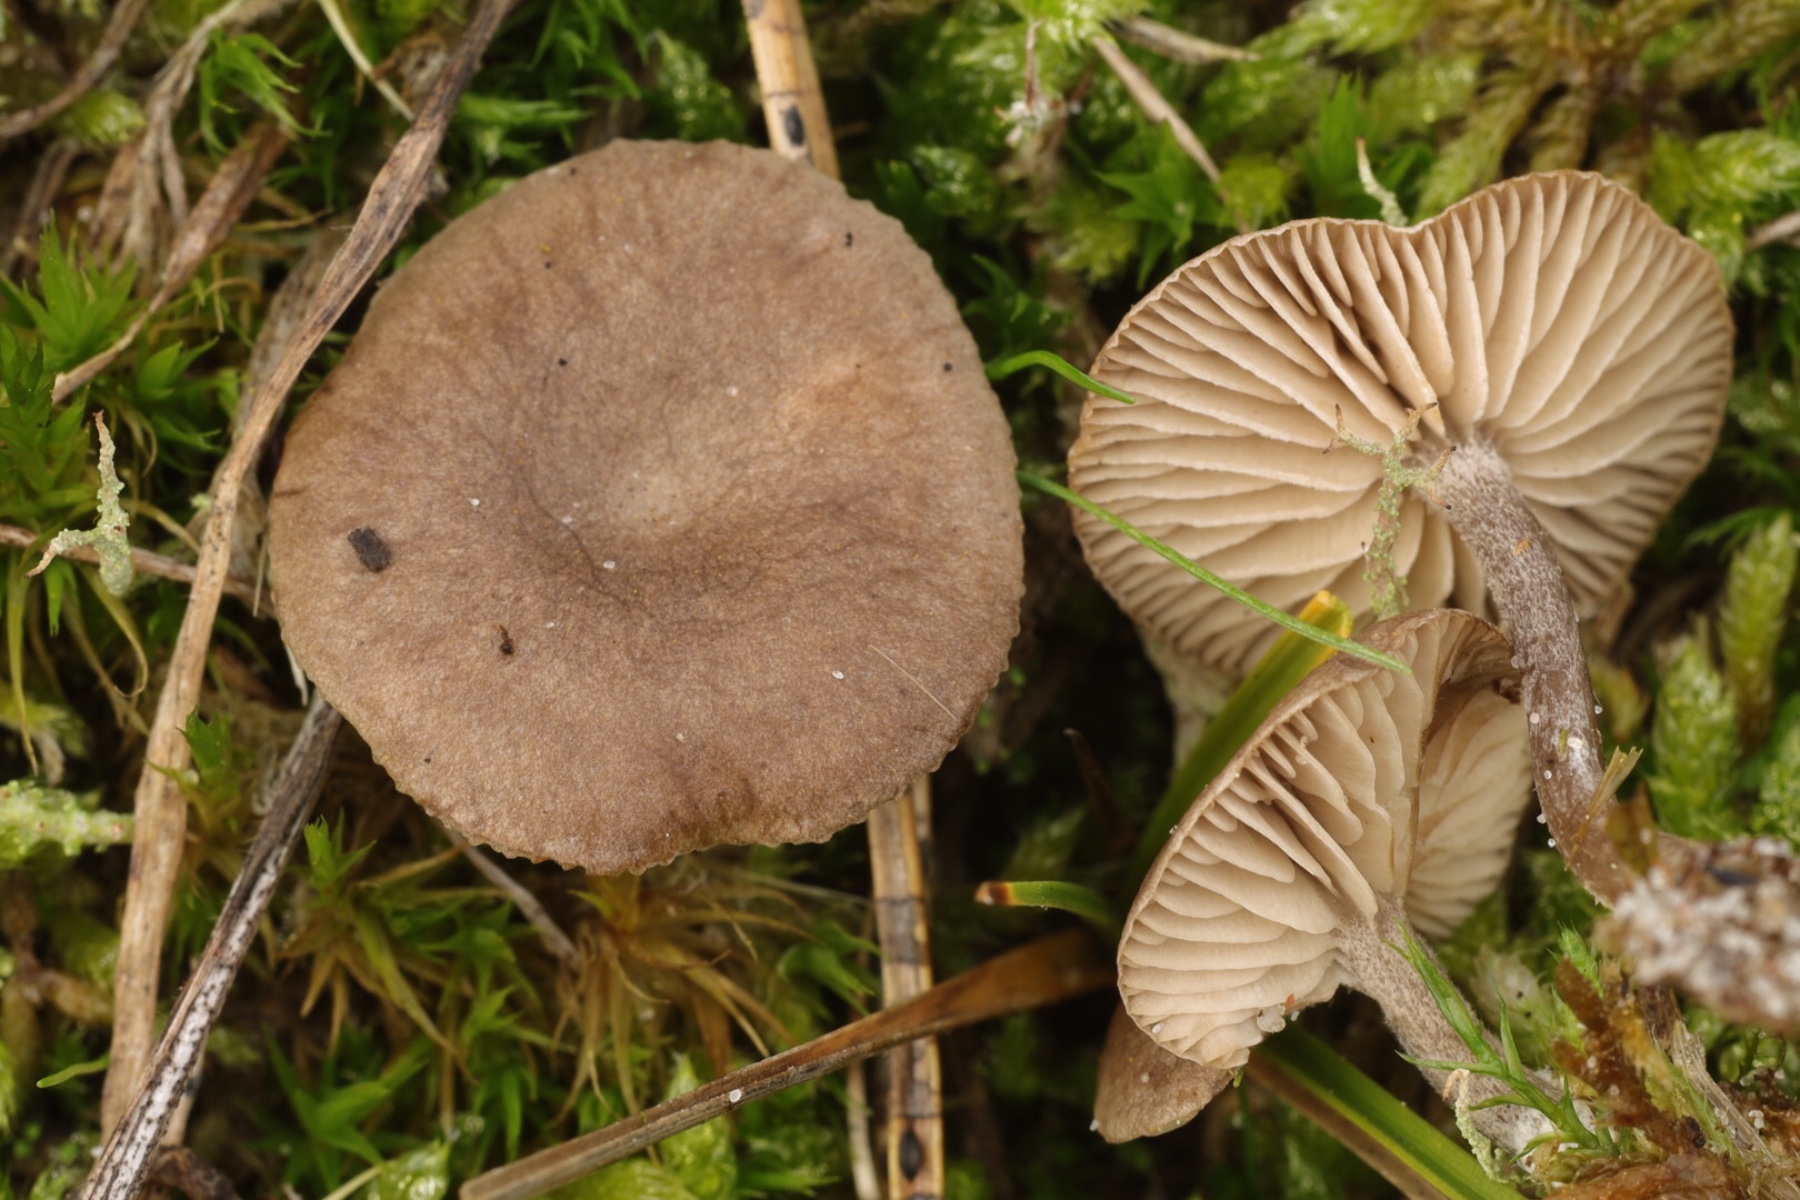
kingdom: Fungi
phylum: Basidiomycota
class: Agaricomycetes
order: Agaricales
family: Entolomataceae
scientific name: Entolomataceae
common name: rødbladfamilien
